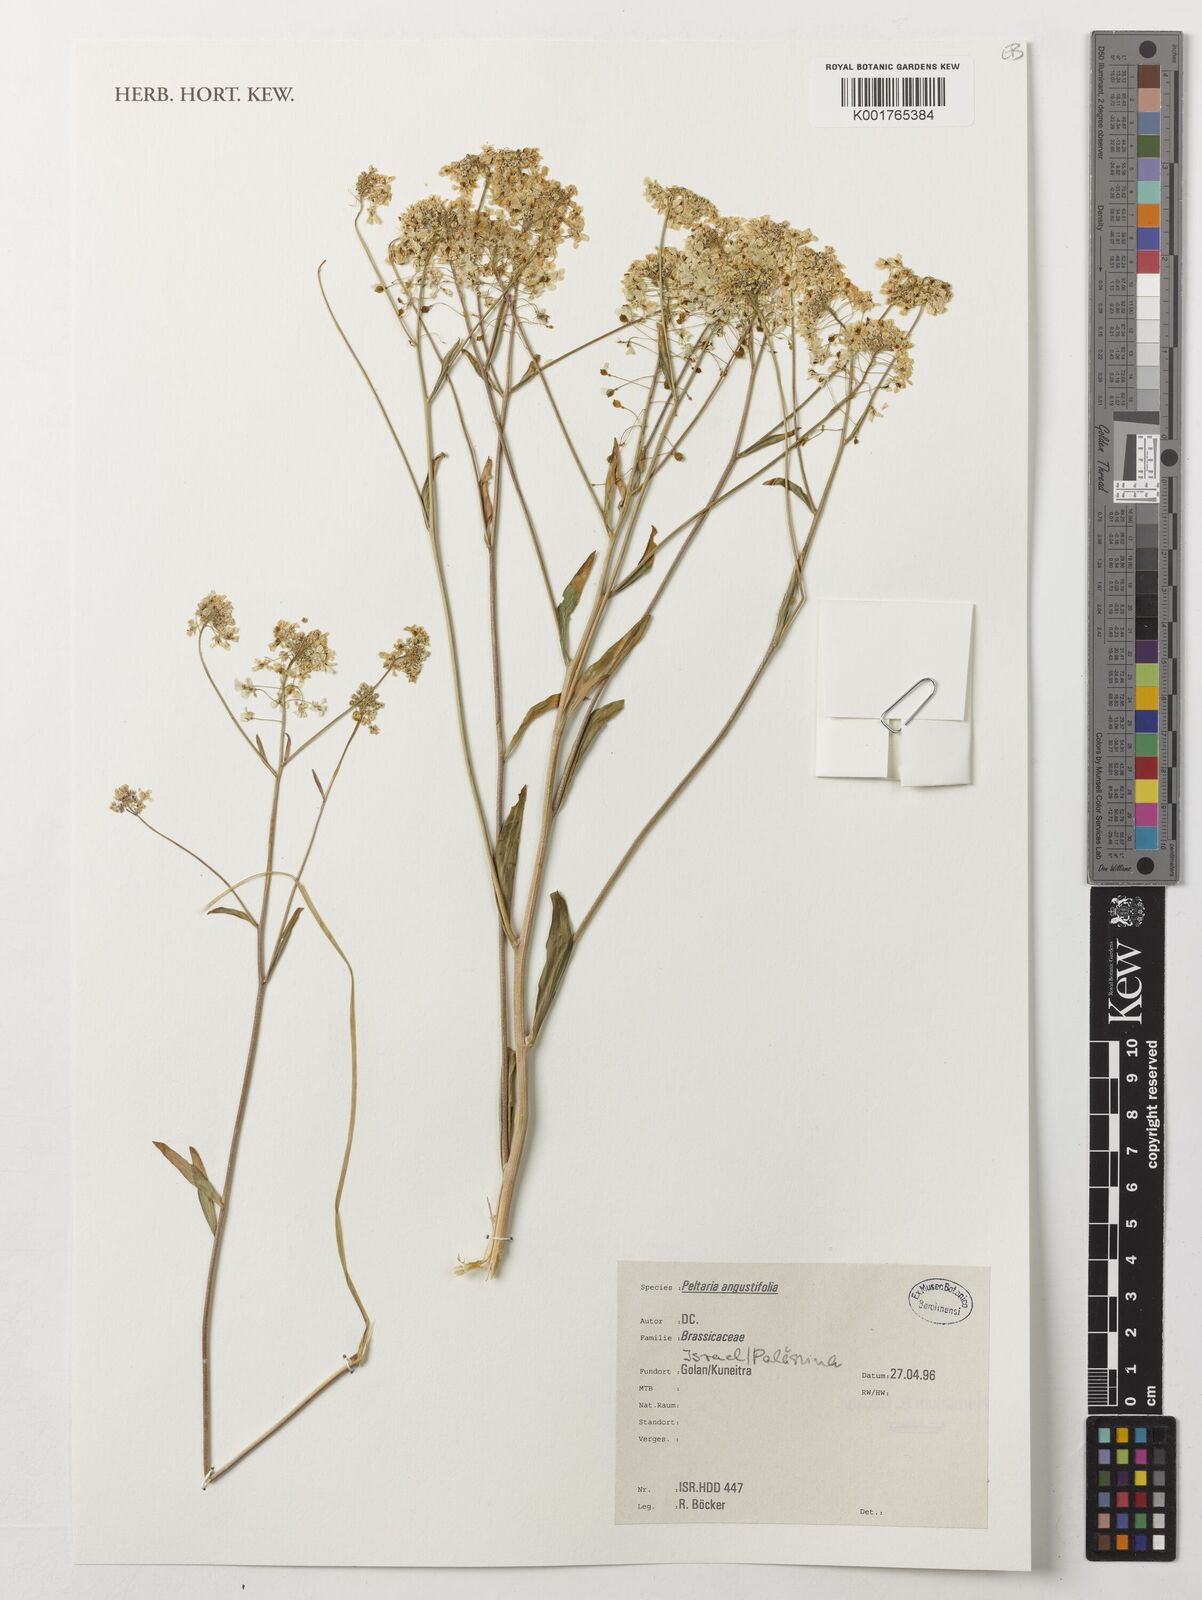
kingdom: Plantae
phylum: Tracheophyta
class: Magnoliopsida
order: Brassicales
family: Brassicaceae
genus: Peltaria
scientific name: Peltaria angustifolia
